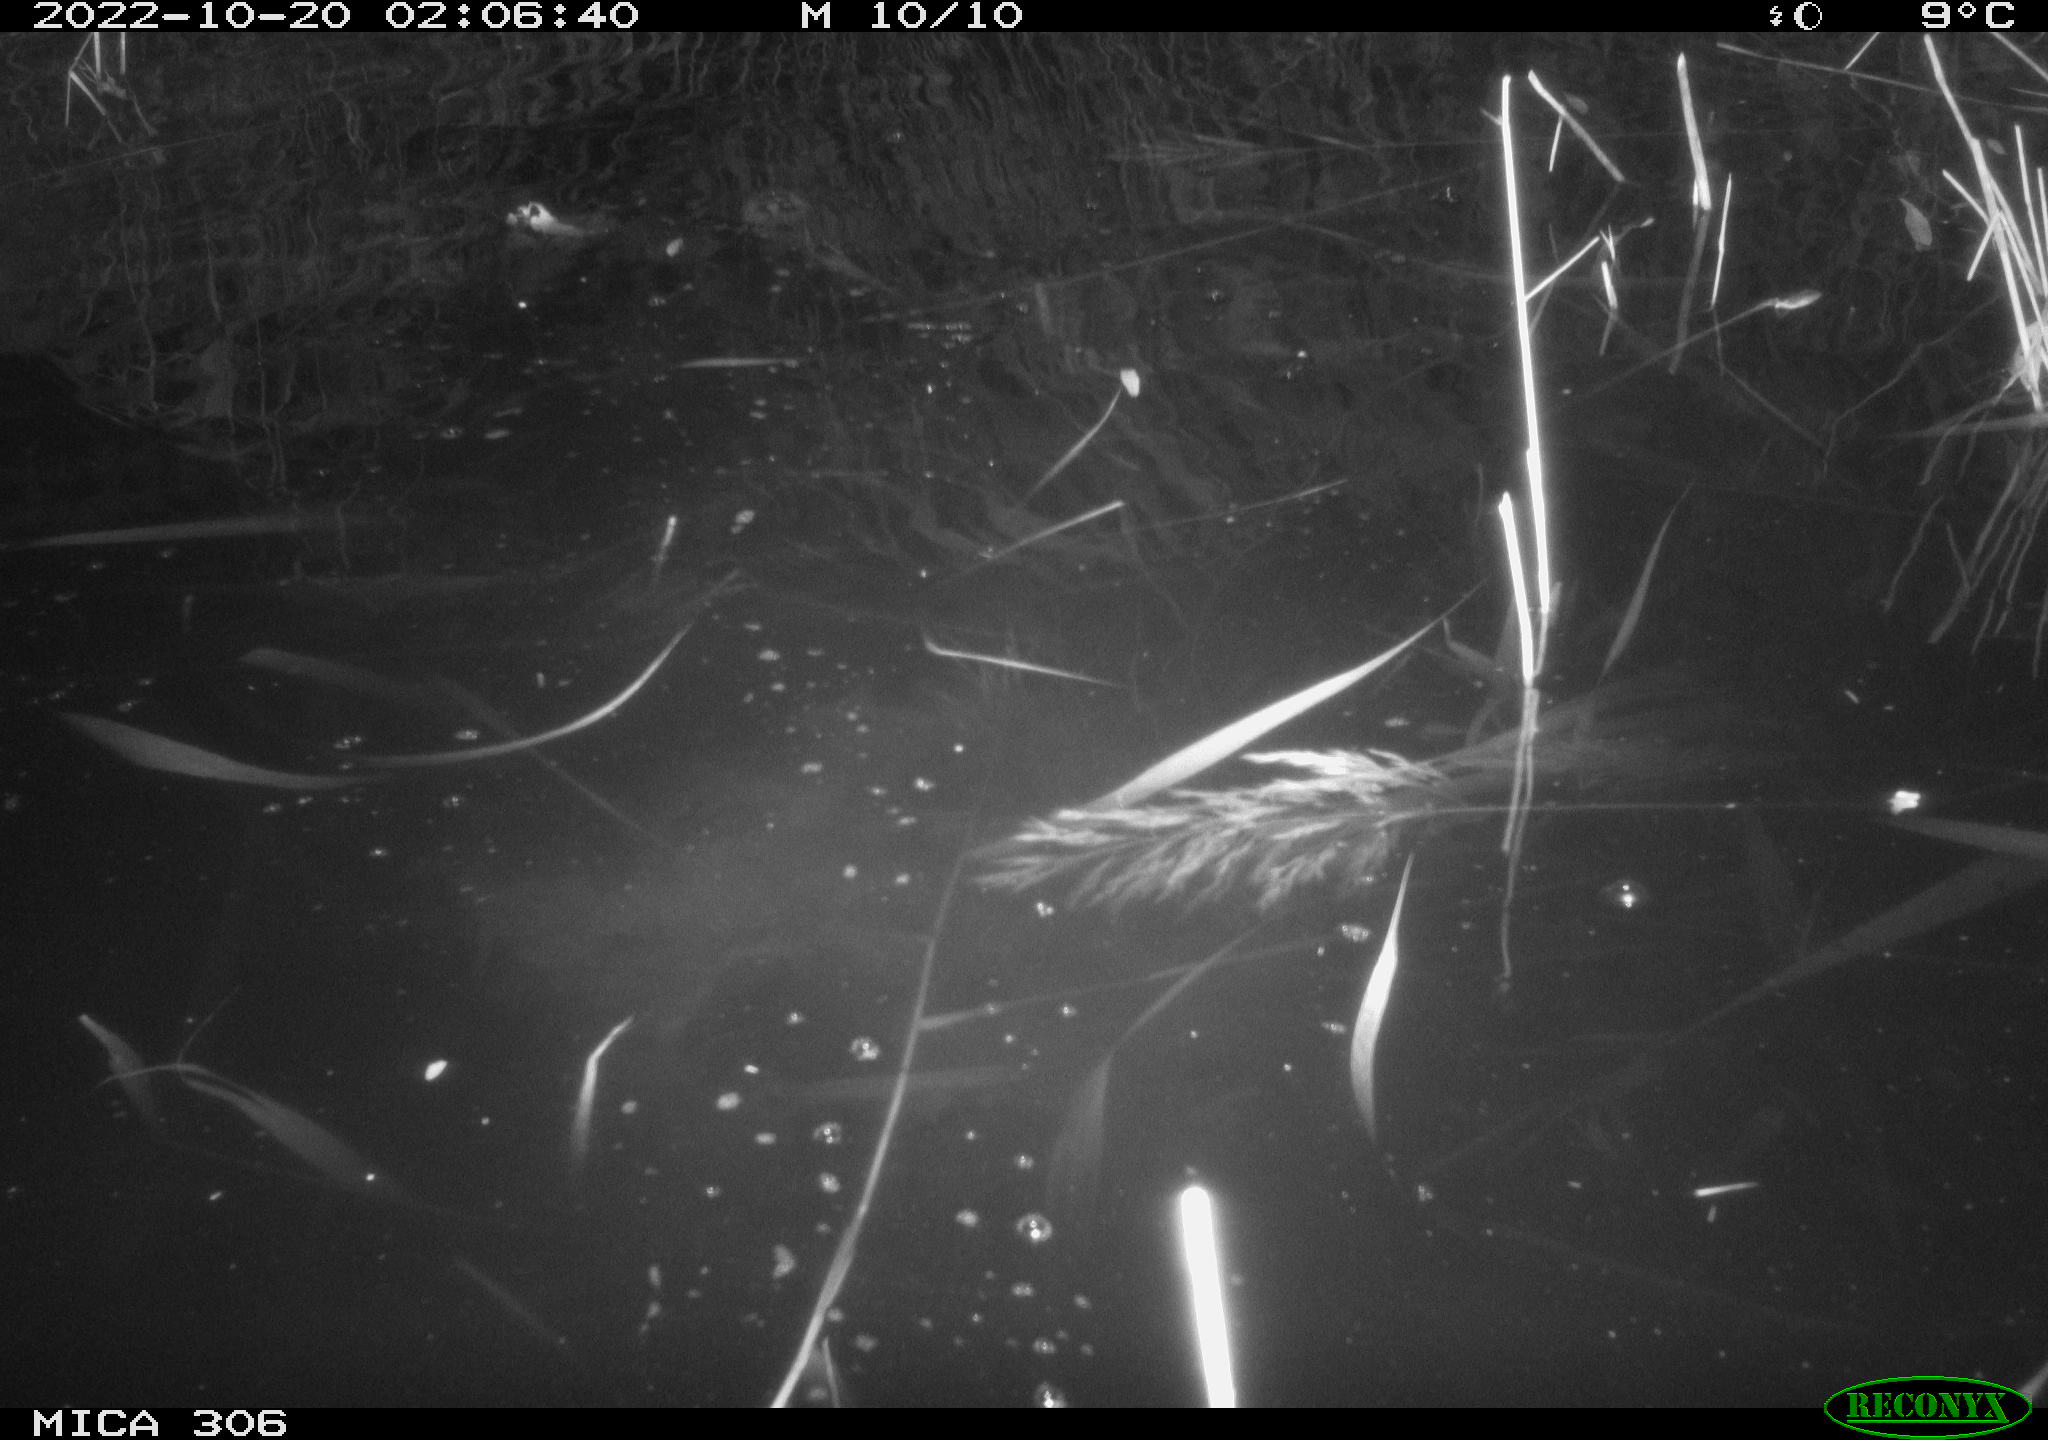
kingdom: Animalia
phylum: Chordata
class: Mammalia
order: Rodentia
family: Muridae
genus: Rattus
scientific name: Rattus norvegicus
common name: Brown rat
